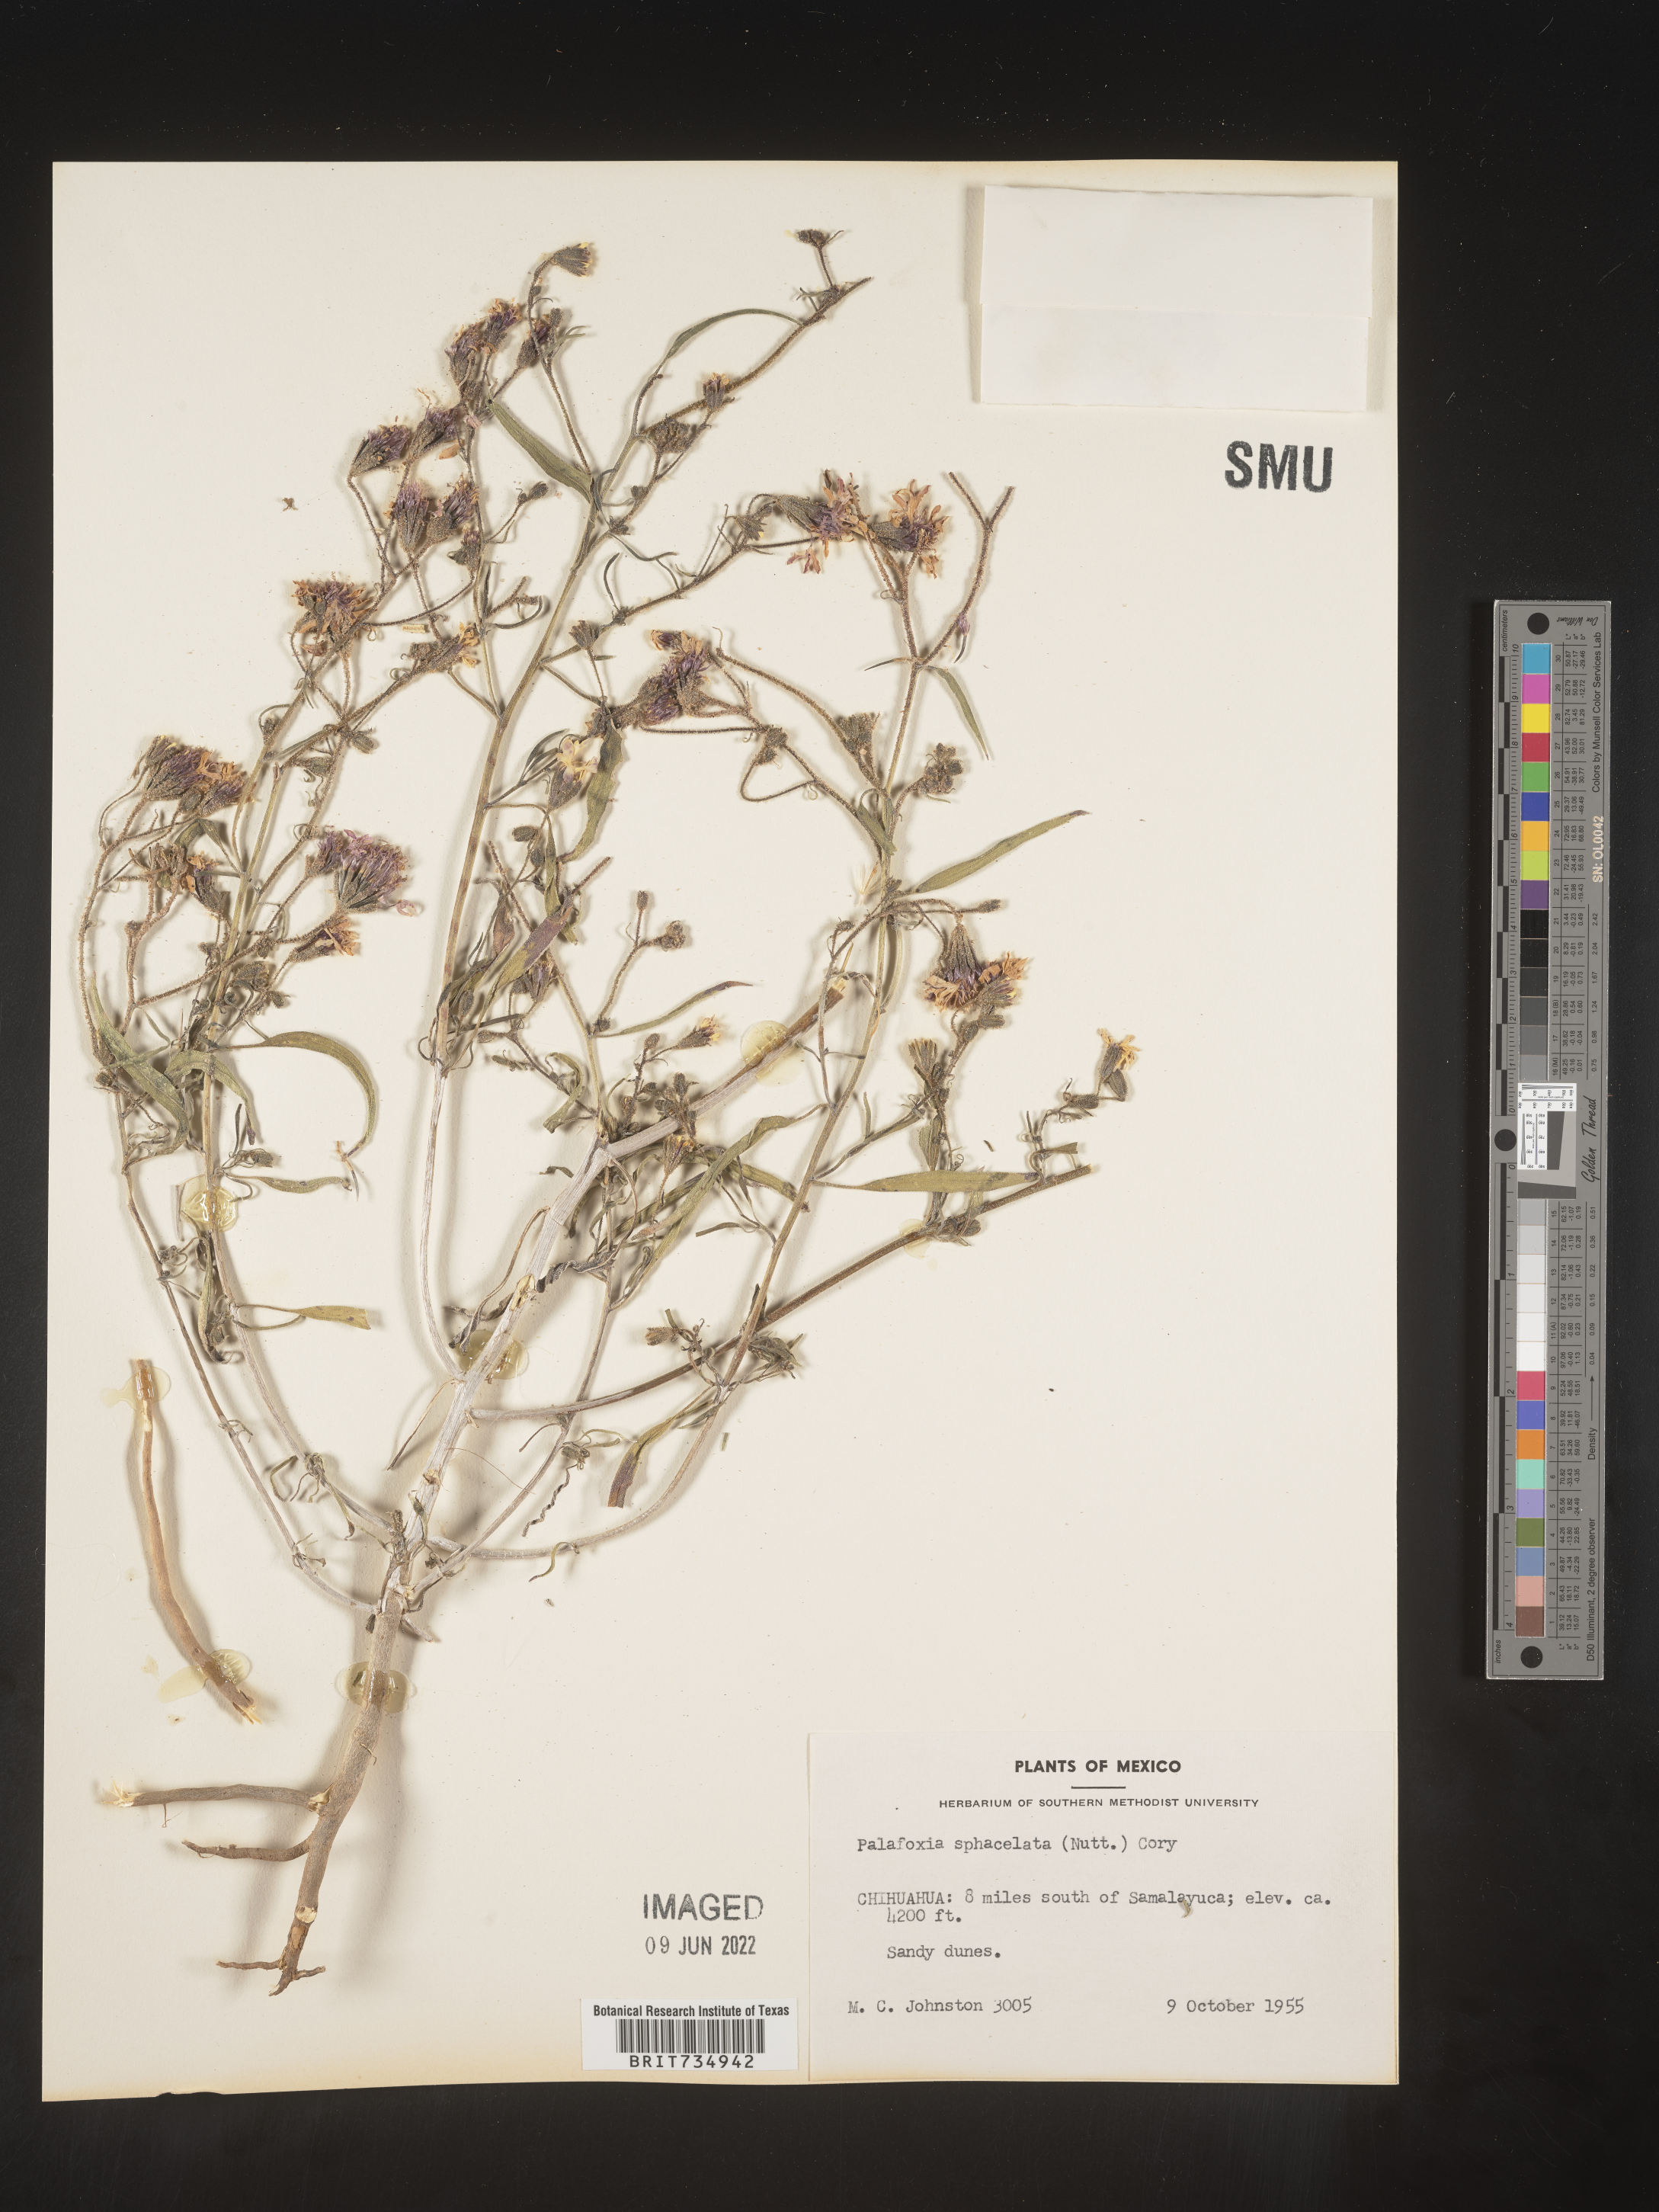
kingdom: Plantae
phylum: Tracheophyta
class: Magnoliopsida
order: Asterales
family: Asteraceae
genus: Palafoxia
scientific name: Palafoxia
